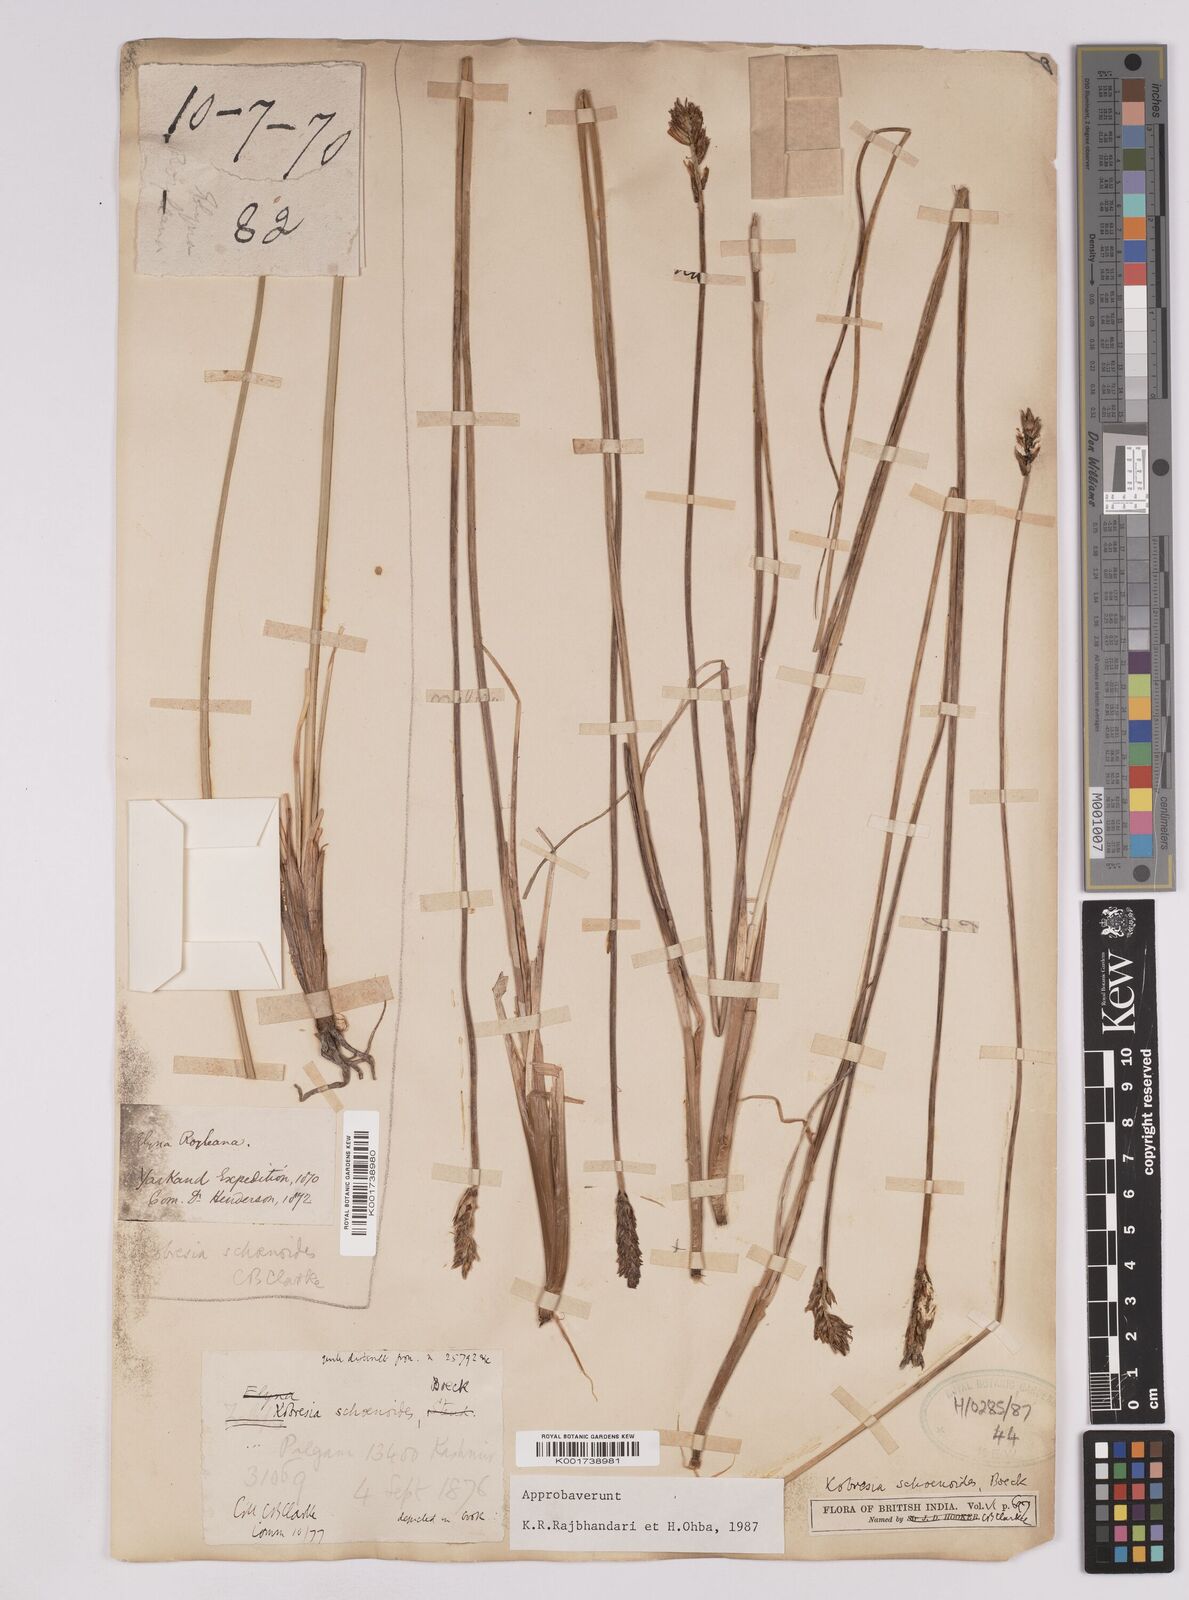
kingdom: Plantae
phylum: Tracheophyta
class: Liliopsida
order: Poales
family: Cyperaceae
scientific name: Cyperaceae
